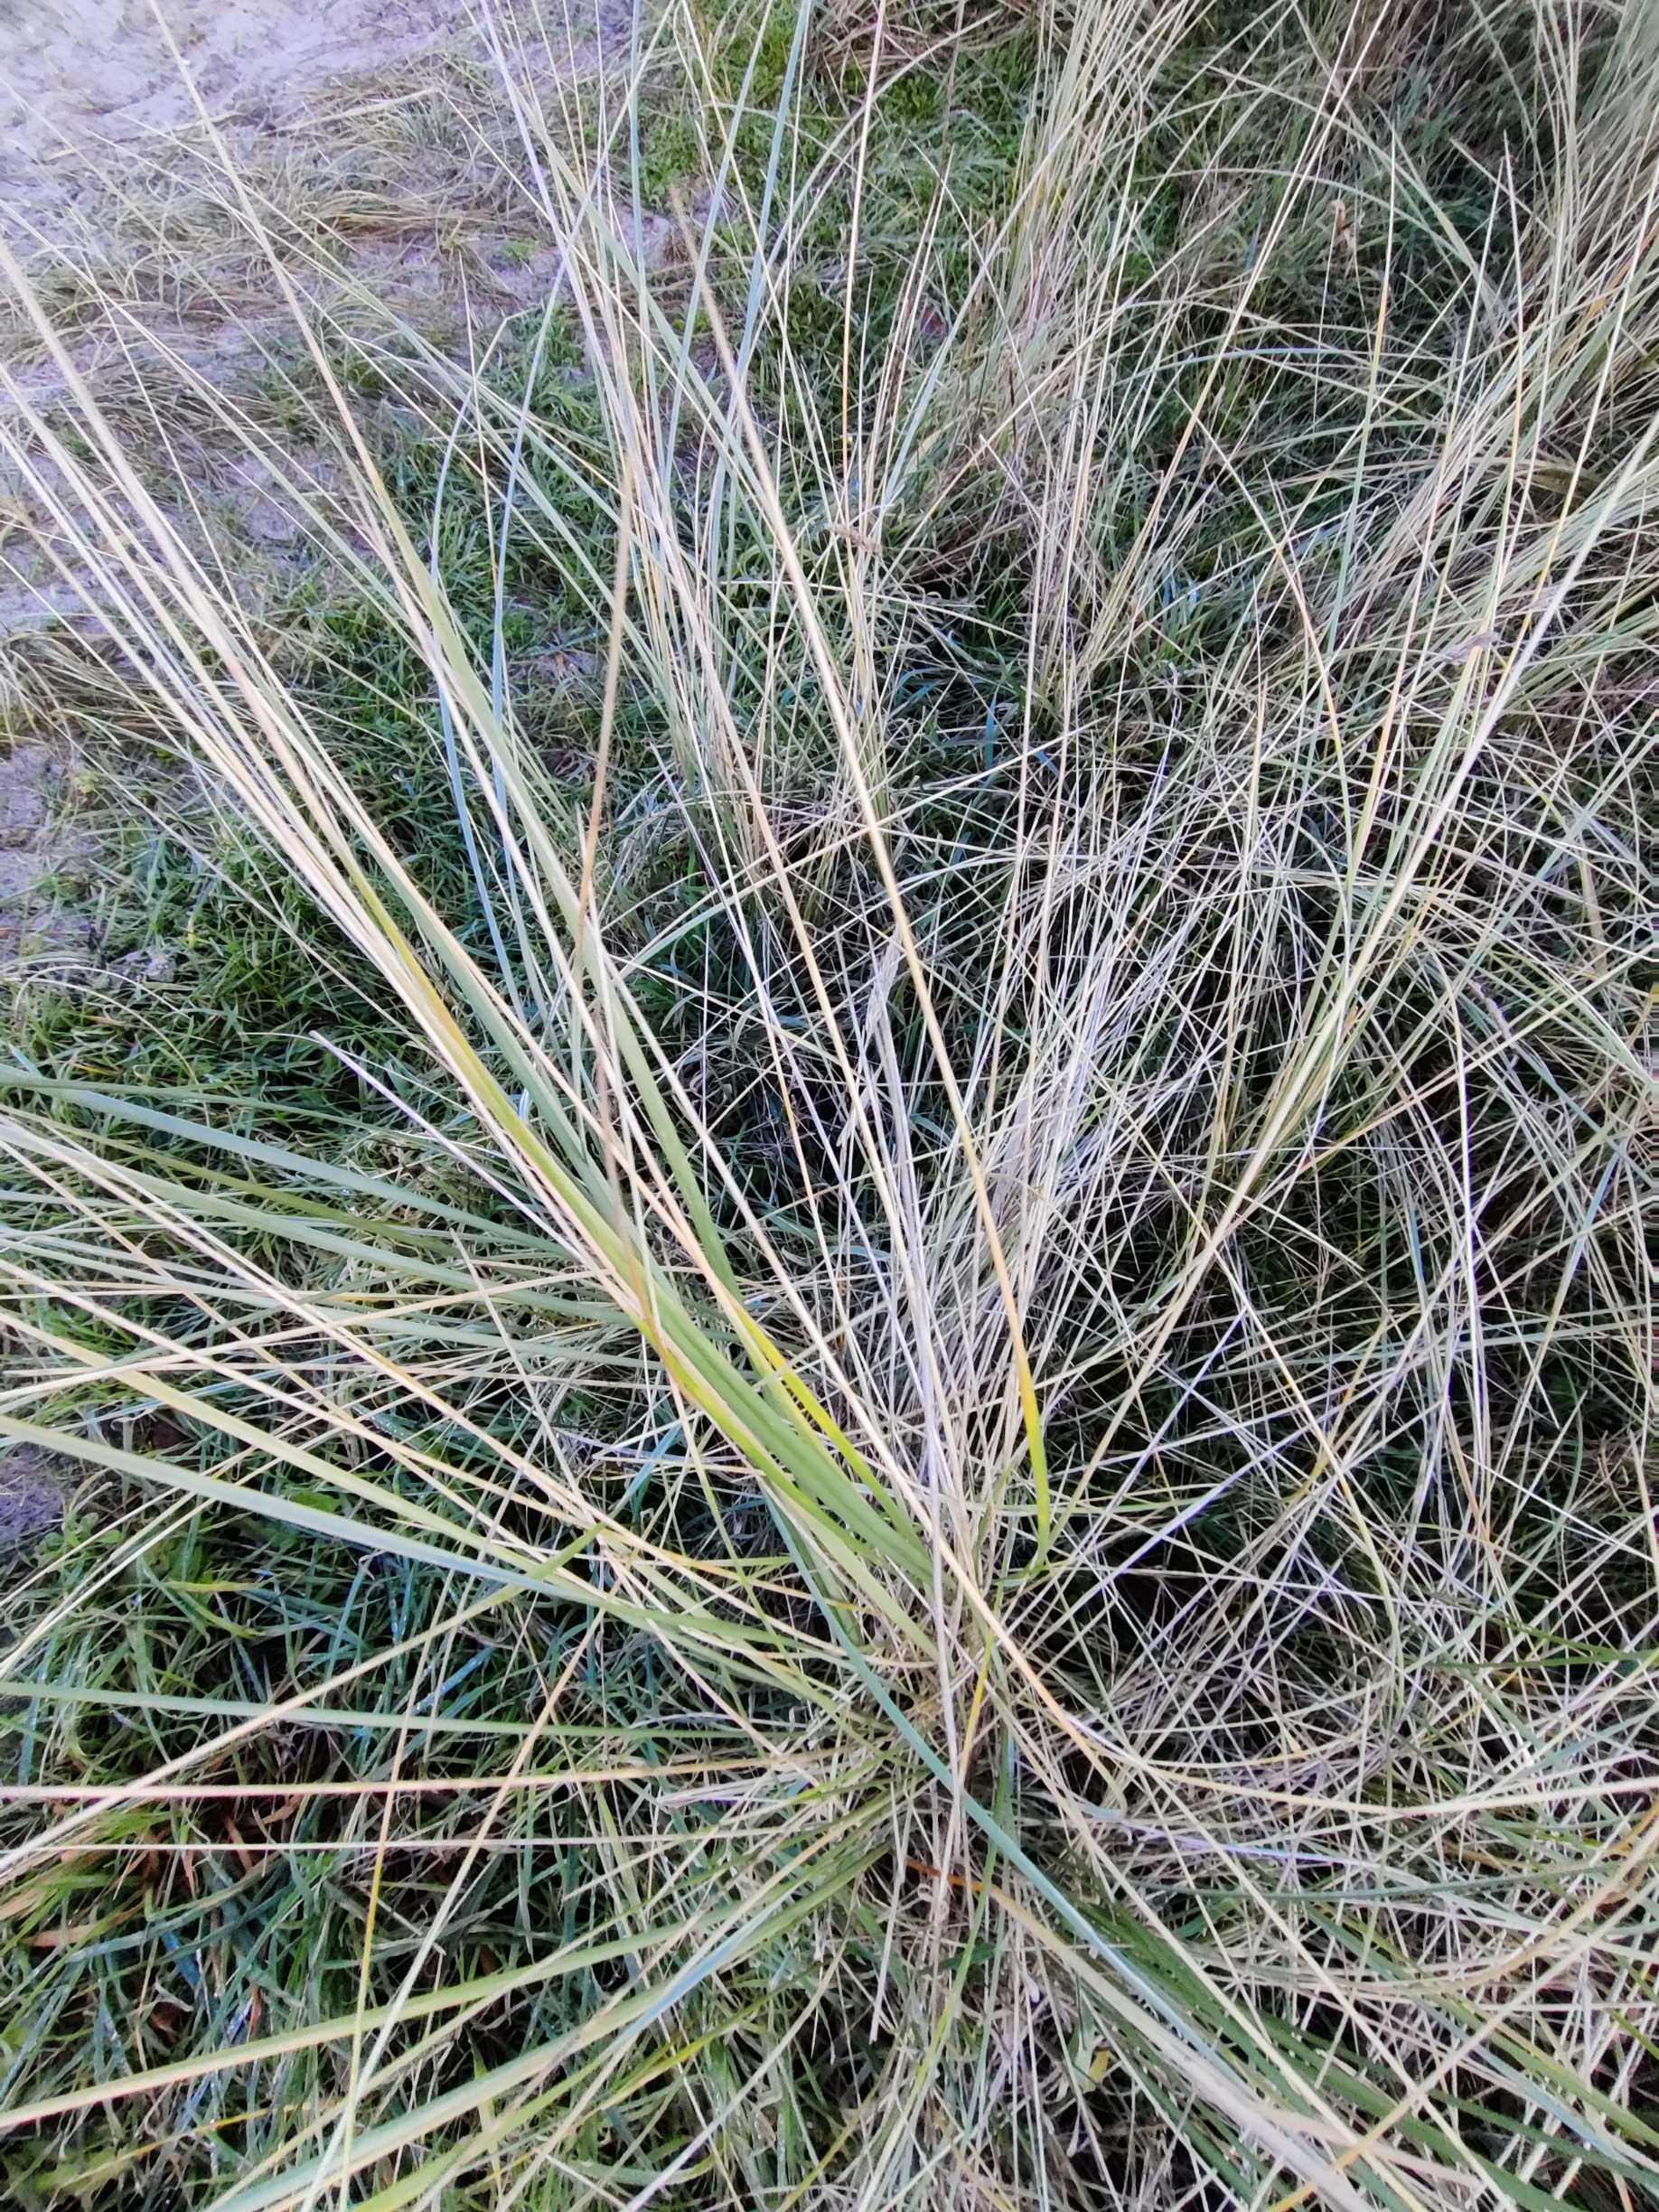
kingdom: Plantae
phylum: Tracheophyta
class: Liliopsida
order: Poales
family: Poaceae
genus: Calamagrostis
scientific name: Calamagrostis arenaria
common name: Sand-hjælme
